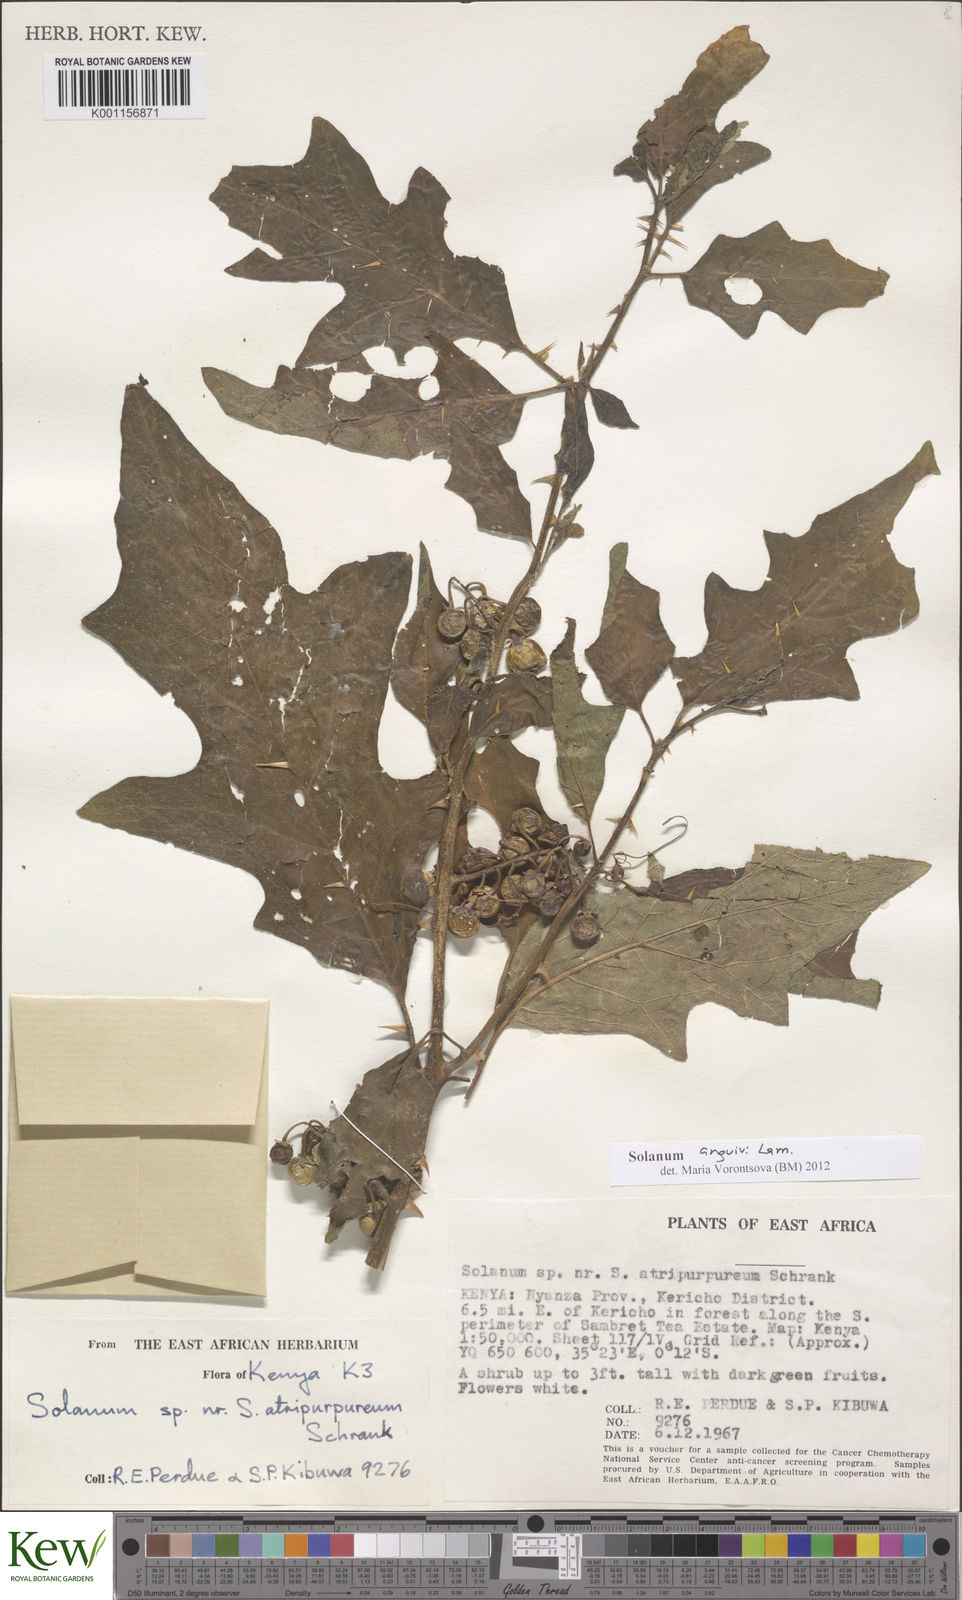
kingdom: Plantae
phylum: Tracheophyta
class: Magnoliopsida
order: Solanales
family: Solanaceae
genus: Solanum
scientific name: Solanum anguivi
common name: Forest bitterberry
